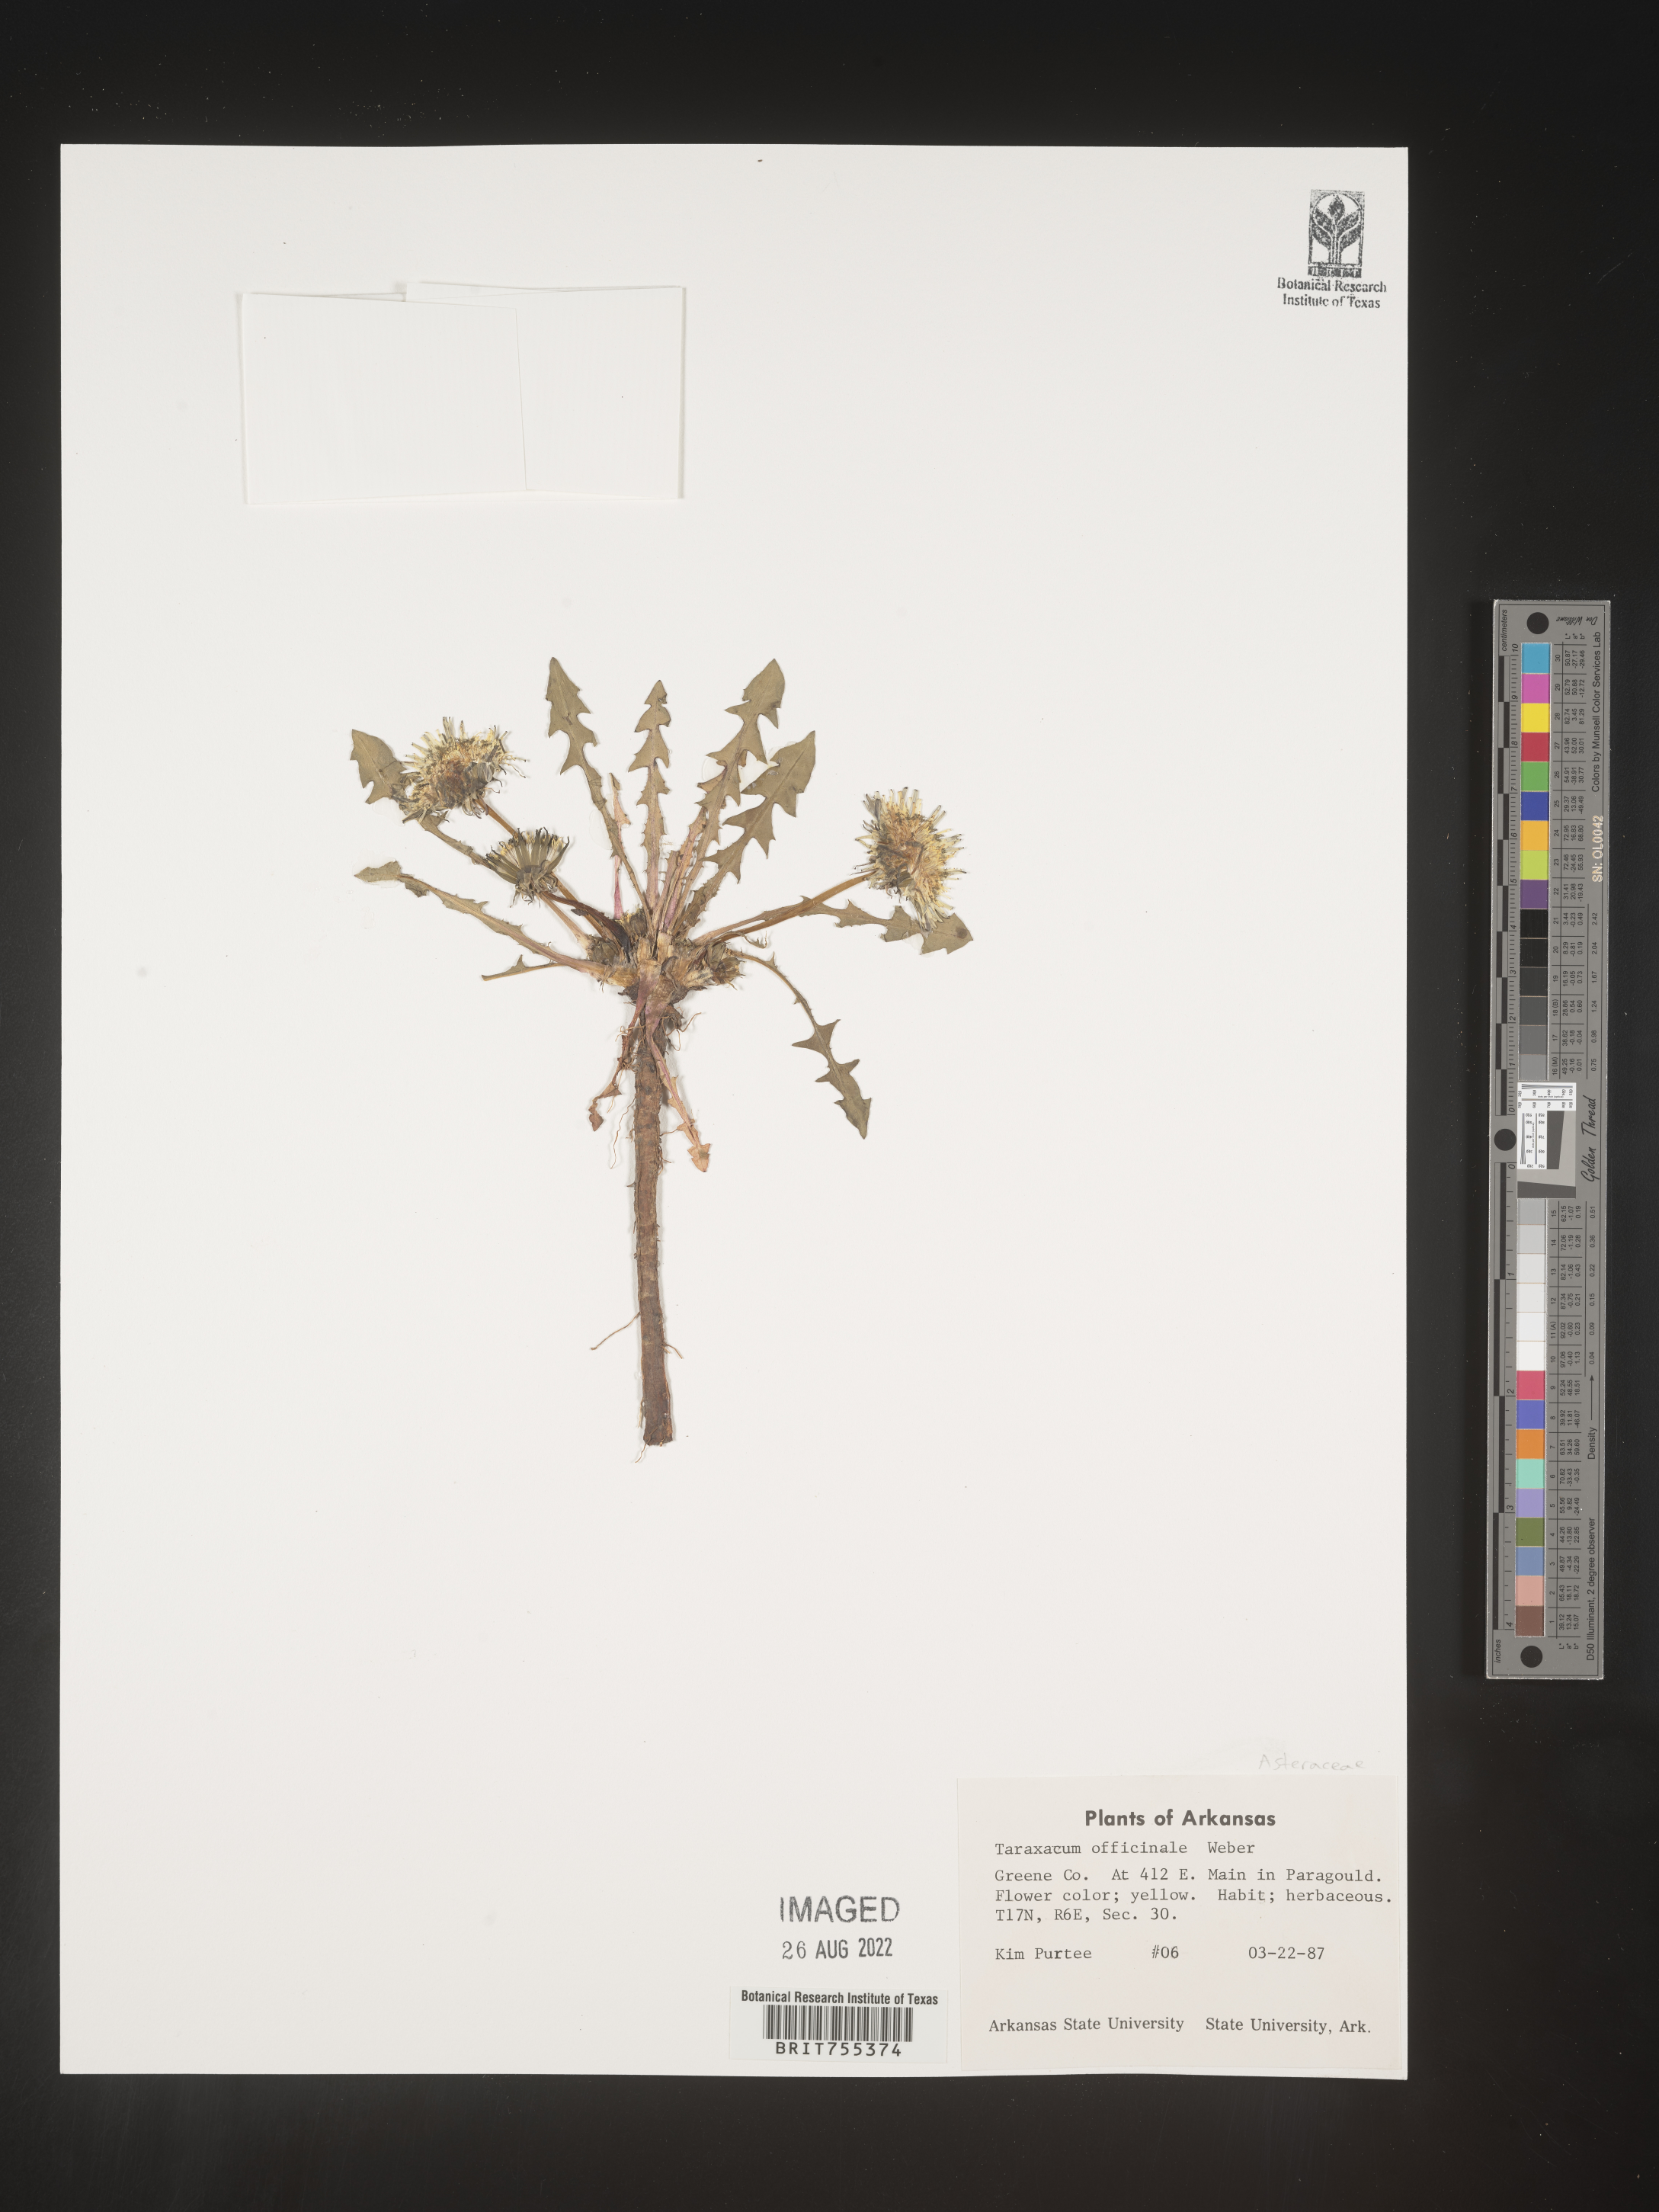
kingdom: Plantae
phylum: Tracheophyta
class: Magnoliopsida
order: Asterales
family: Asteraceae
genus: Taraxacum
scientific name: Taraxacum officinale
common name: Common dandelion
